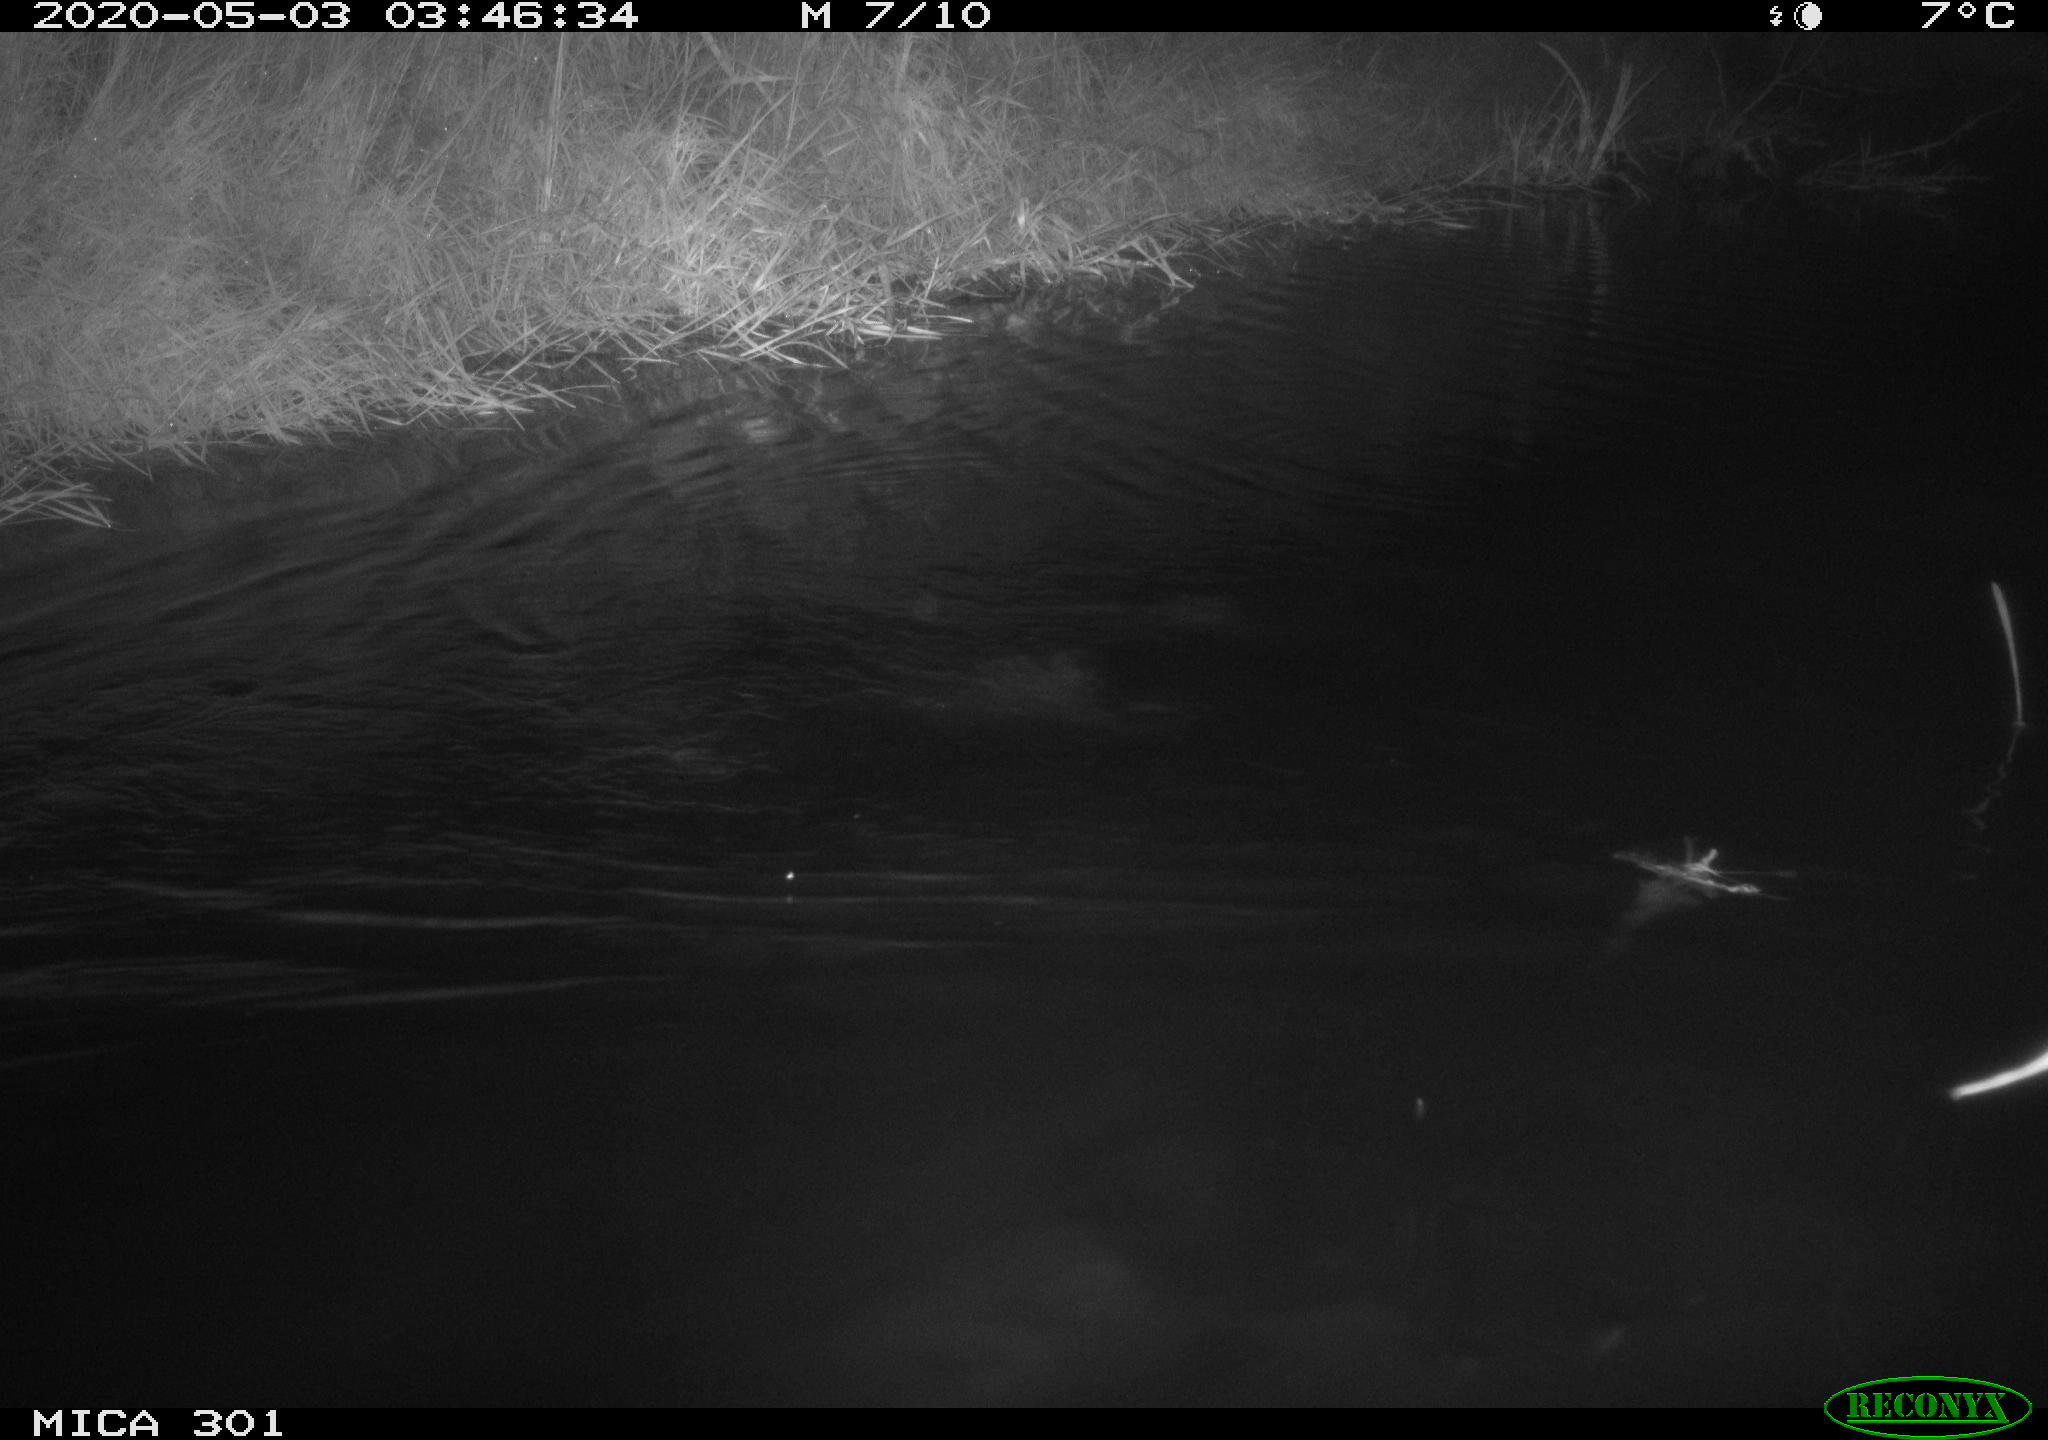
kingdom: Animalia
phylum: Chordata
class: Mammalia
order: Rodentia
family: Castoridae
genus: Castor
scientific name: Castor fiber
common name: Eurasian beaver
